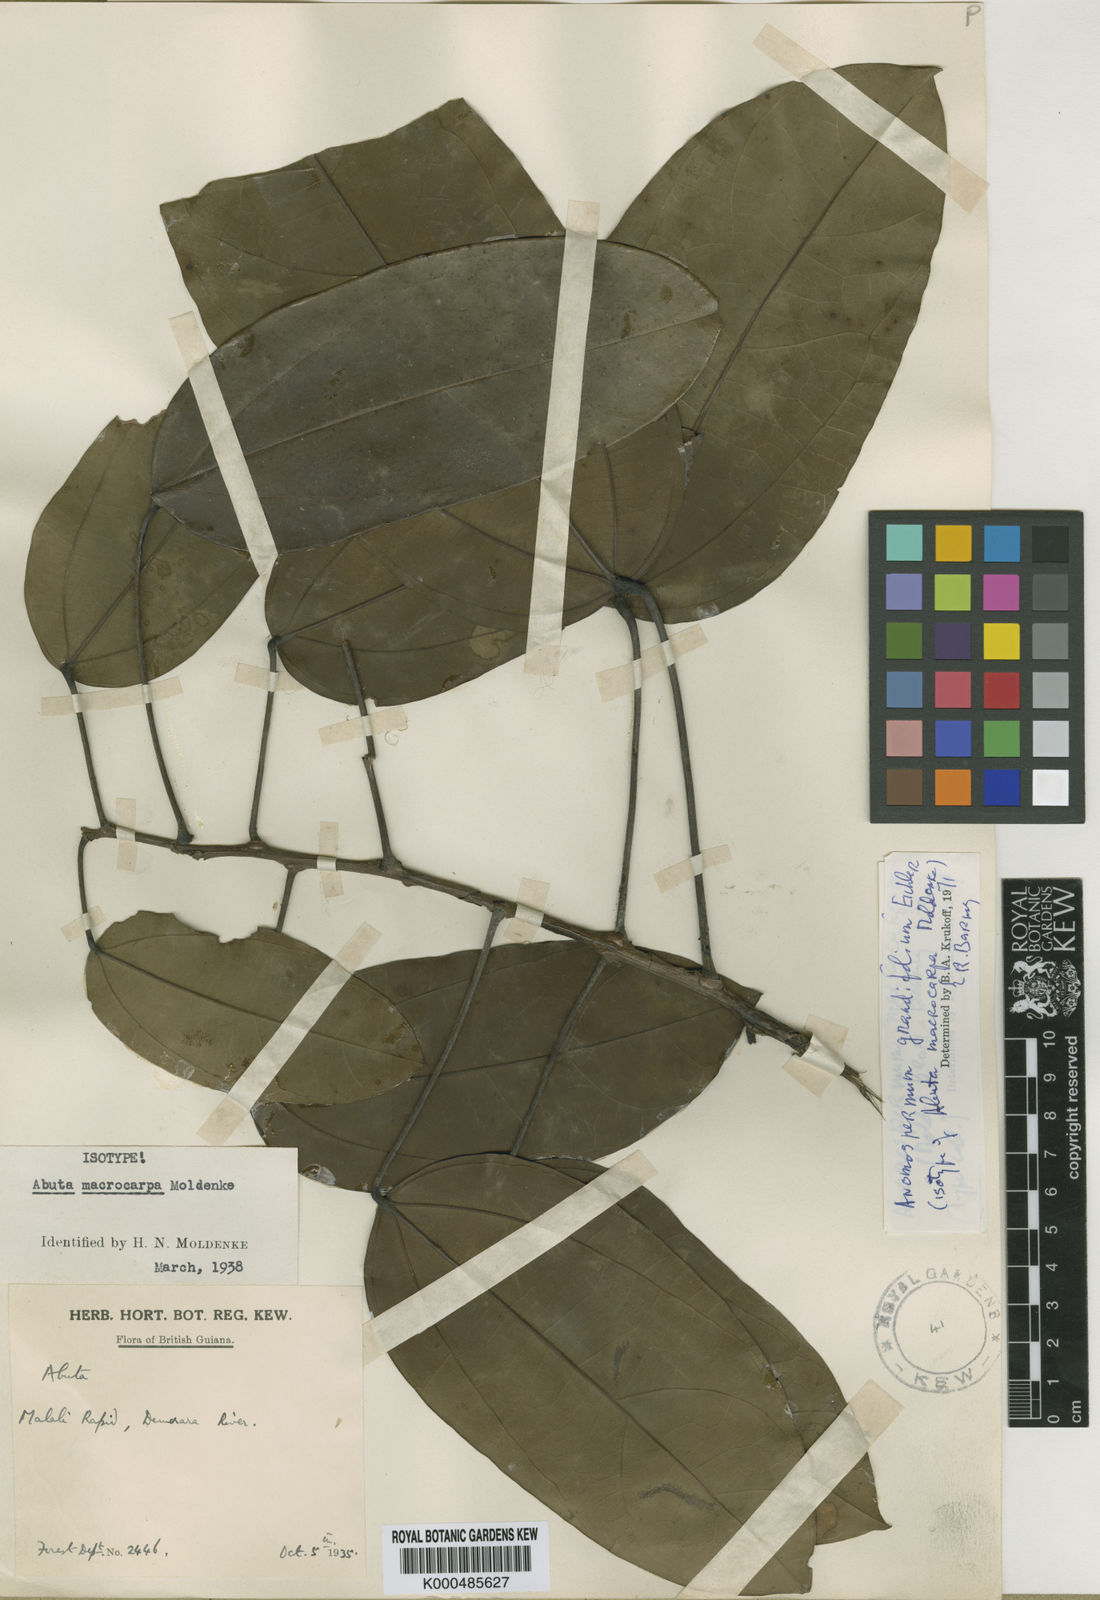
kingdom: Plantae
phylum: Tracheophyta
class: Magnoliopsida
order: Ranunculales
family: Menispermaceae
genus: Elissarrhena
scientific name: Elissarrhena longipes
